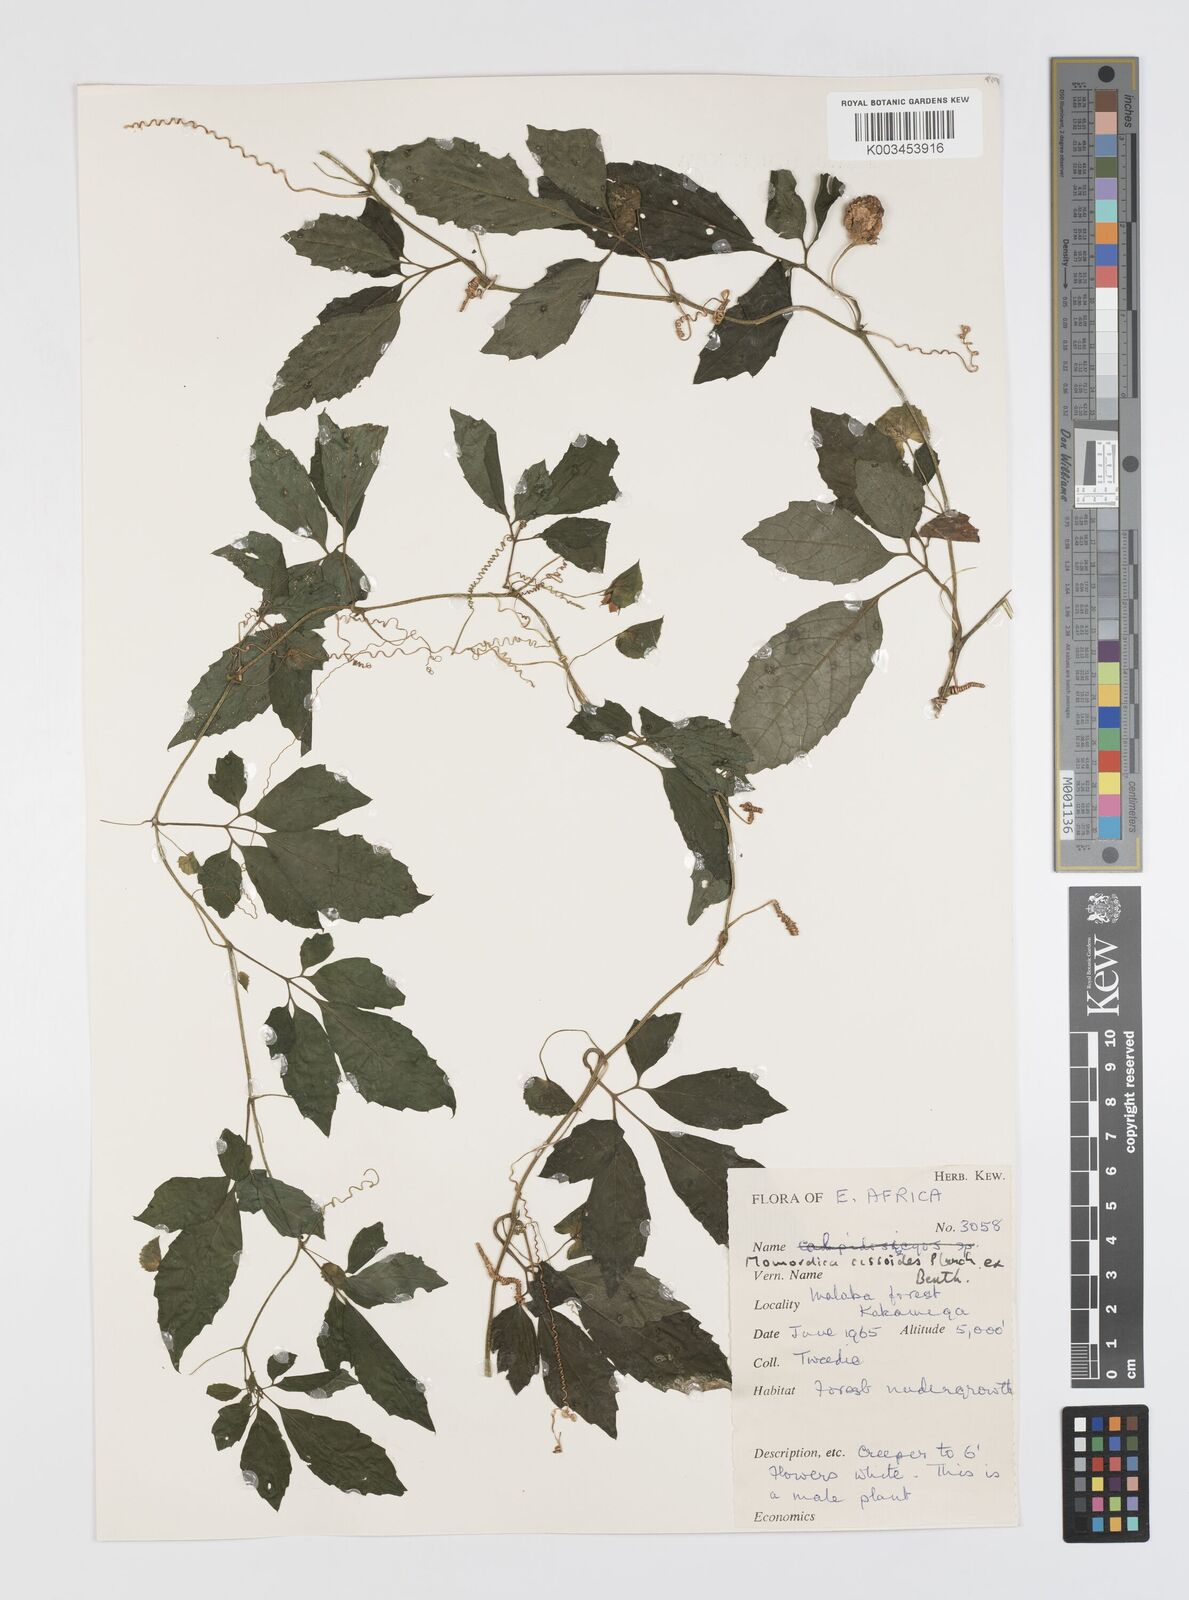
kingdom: Plantae
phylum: Tracheophyta
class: Magnoliopsida
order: Cucurbitales
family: Cucurbitaceae
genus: Momordica
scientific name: Momordica cissoides
